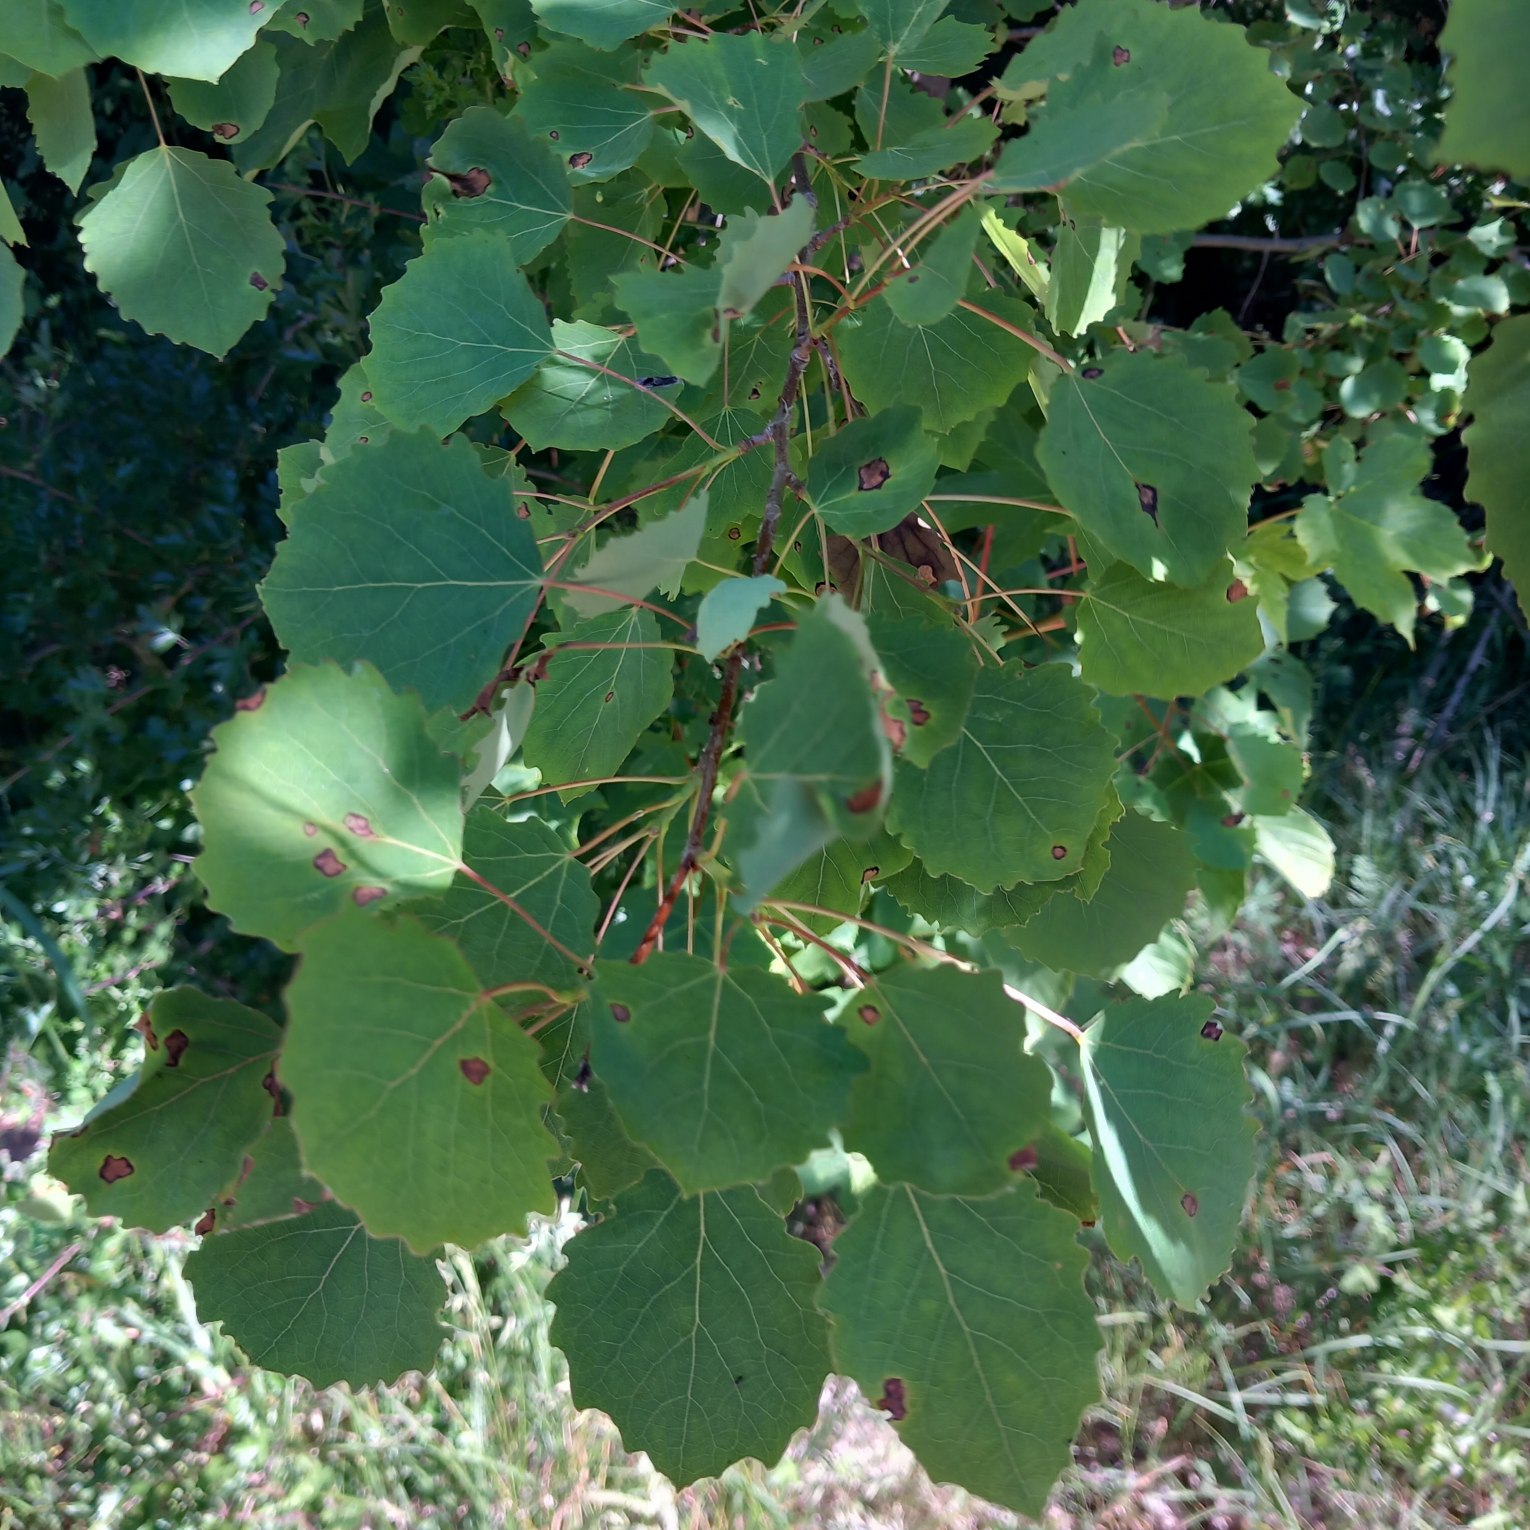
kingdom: Plantae
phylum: Tracheophyta
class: Magnoliopsida
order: Malpighiales
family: Salicaceae
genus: Populus
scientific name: Populus tremula
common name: Bævreasp
